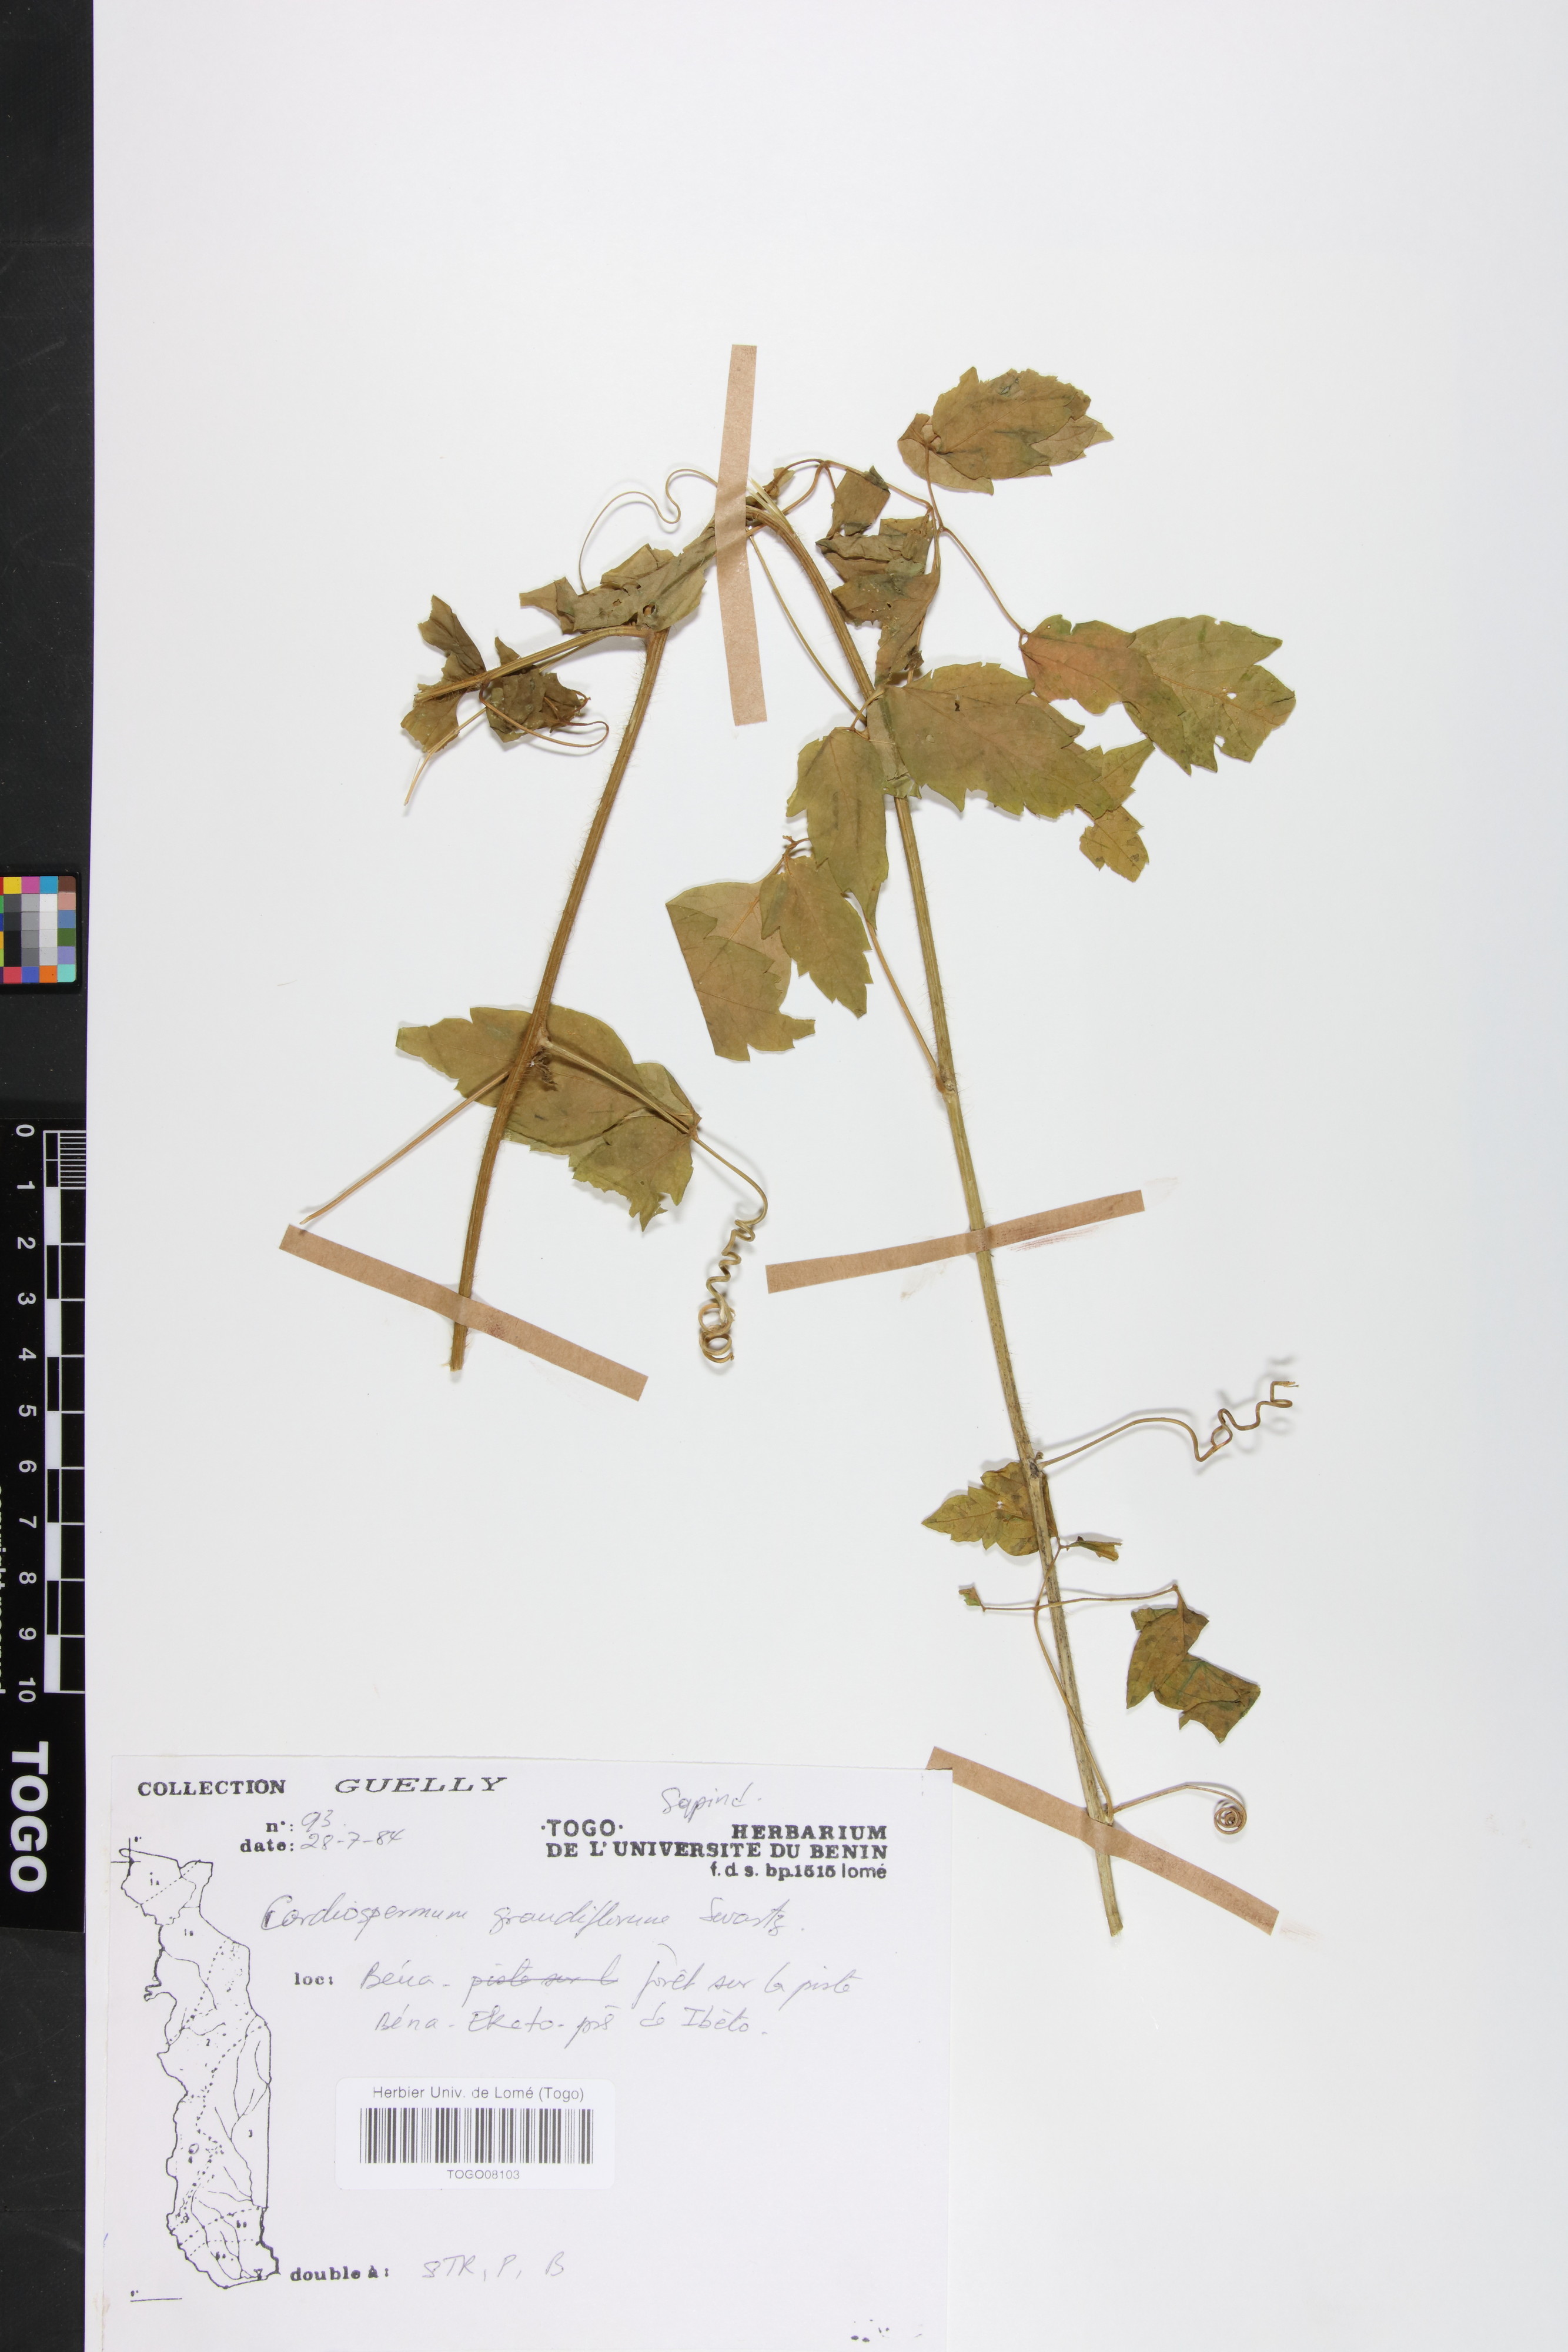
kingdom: Plantae
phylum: Tracheophyta
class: Magnoliopsida
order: Sapindales
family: Sapindaceae
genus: Cardiospermum
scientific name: Cardiospermum grandiflorum
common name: Balloon vine
